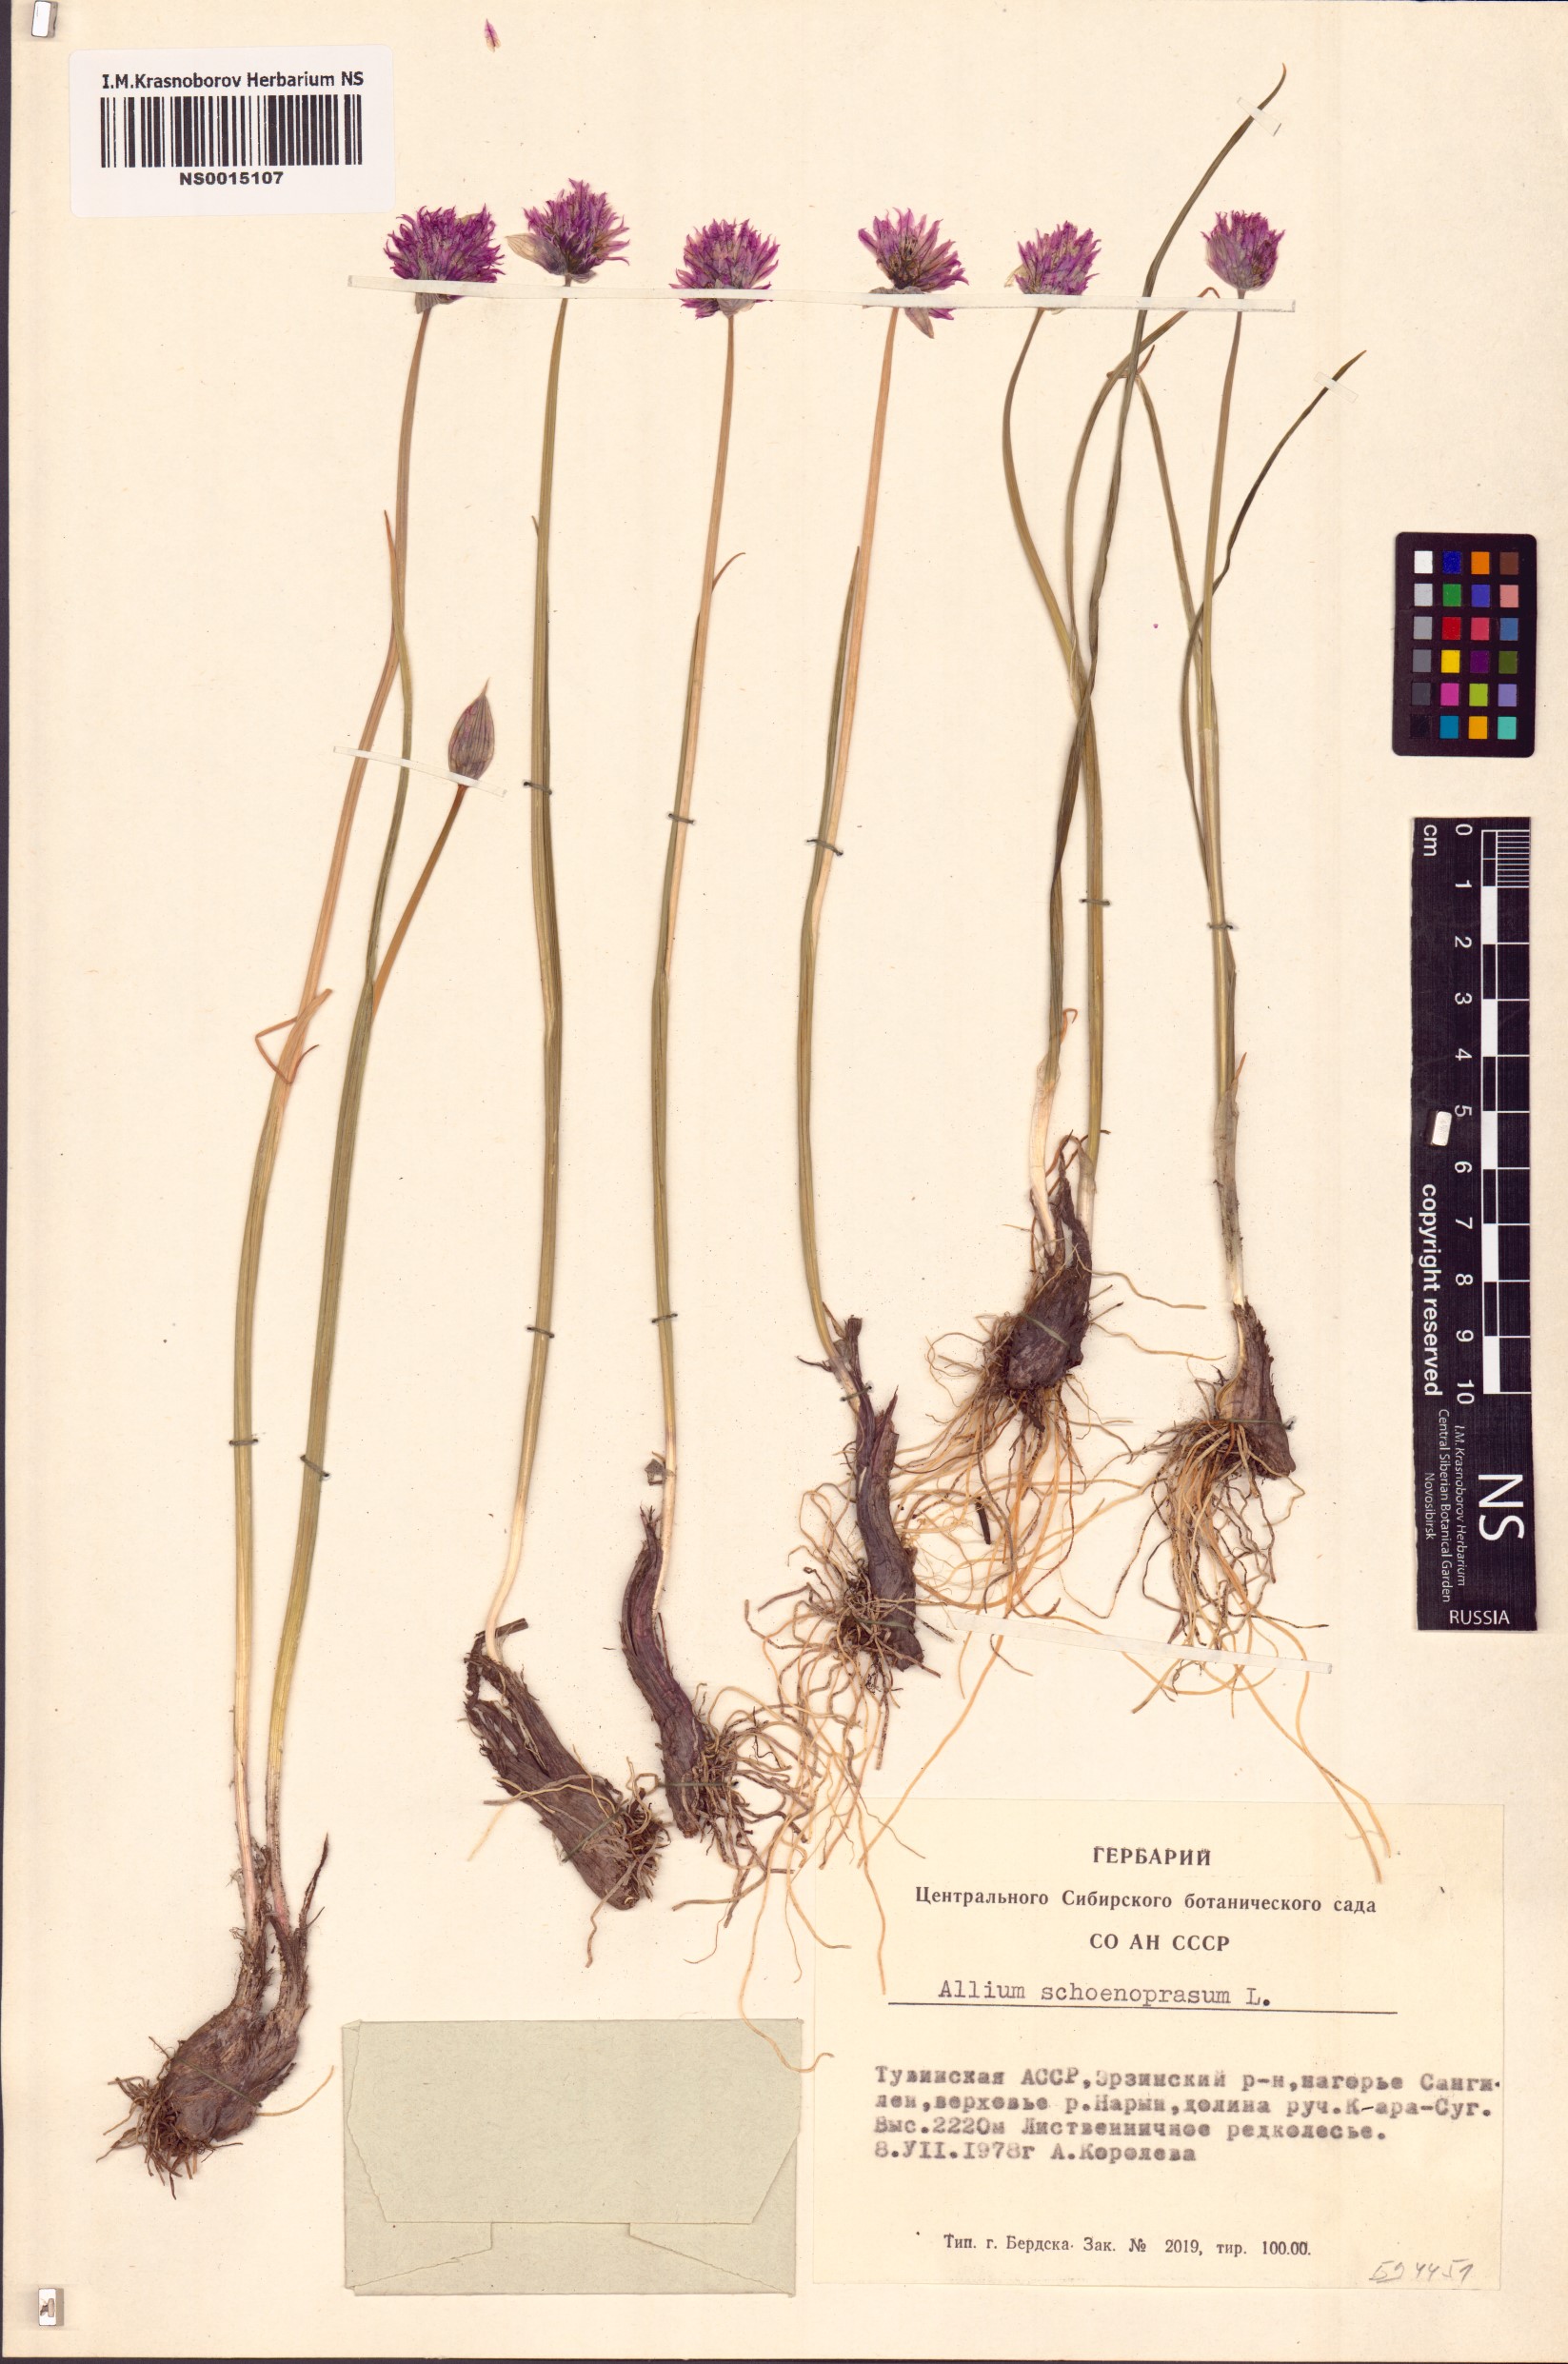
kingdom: Plantae
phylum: Tracheophyta
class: Liliopsida
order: Asparagales
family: Amaryllidaceae
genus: Allium
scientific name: Allium schoenoprasum
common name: Chives
